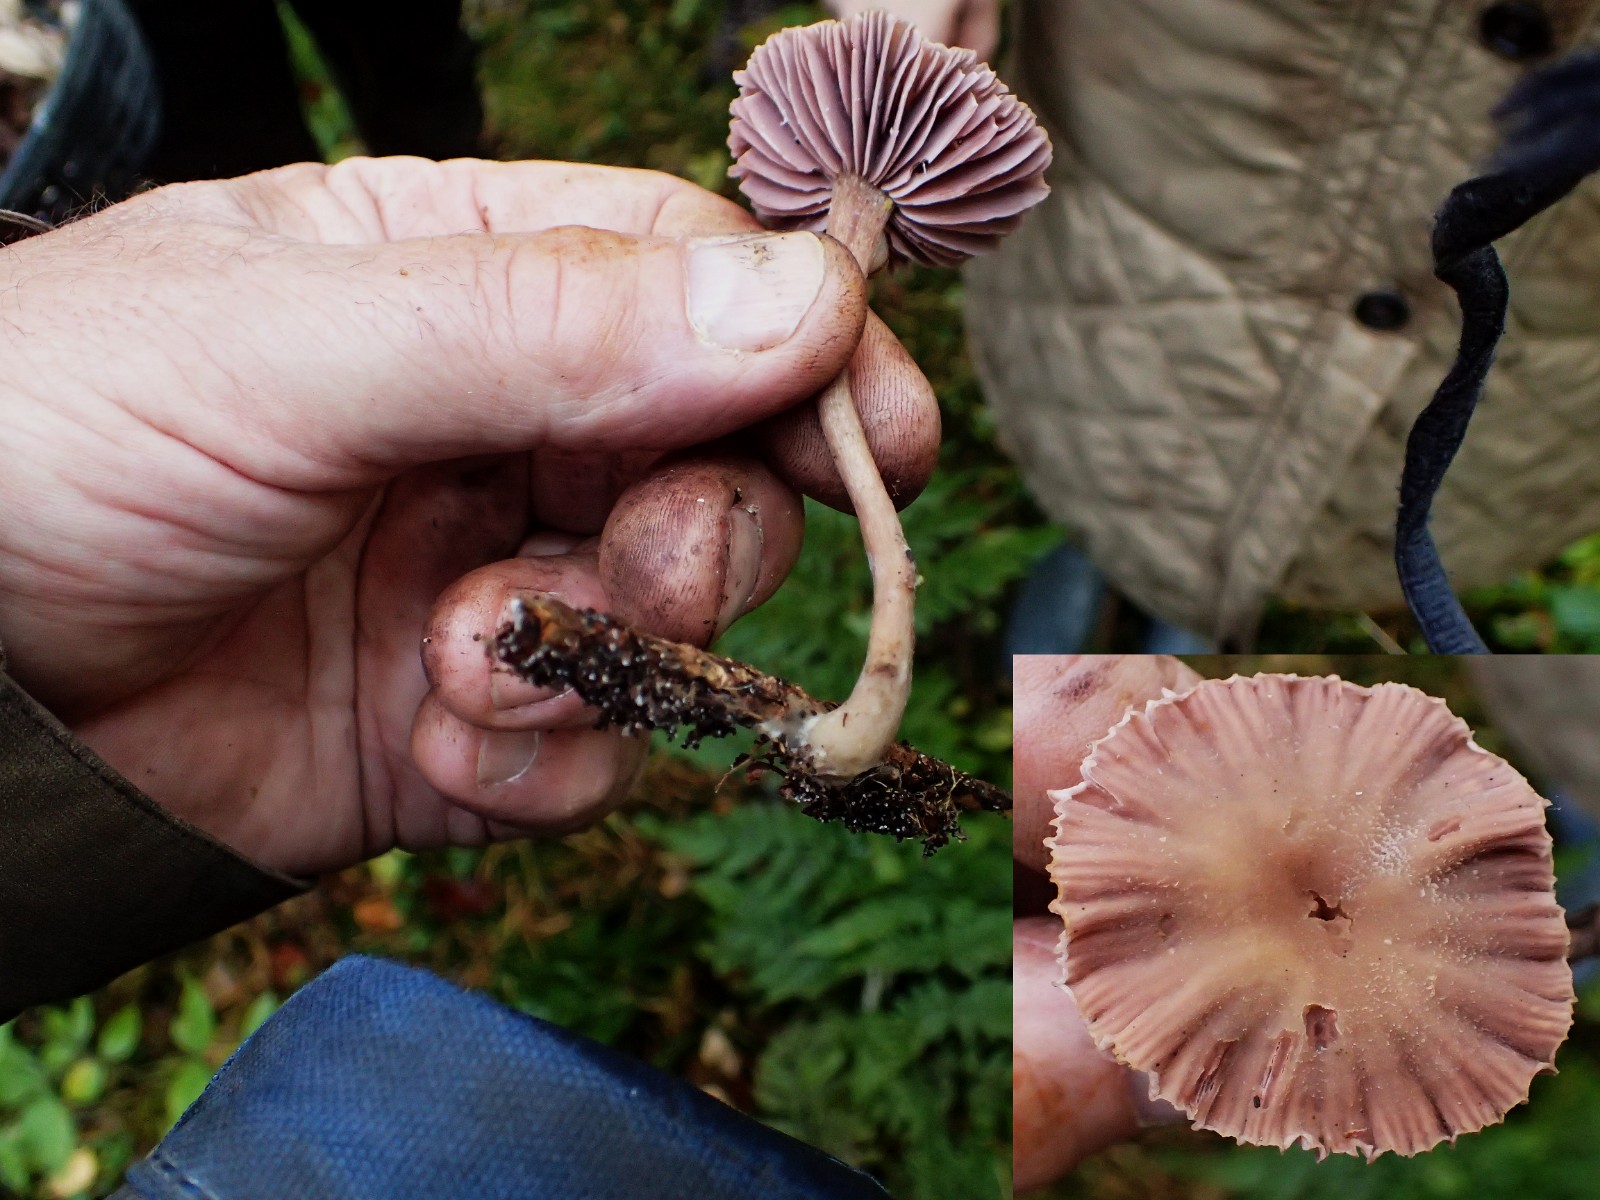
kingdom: Fungi
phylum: Basidiomycota
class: Agaricomycetes
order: Agaricales
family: Hydnangiaceae
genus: Laccaria
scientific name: Laccaria amethystina
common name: violet ametysthat
